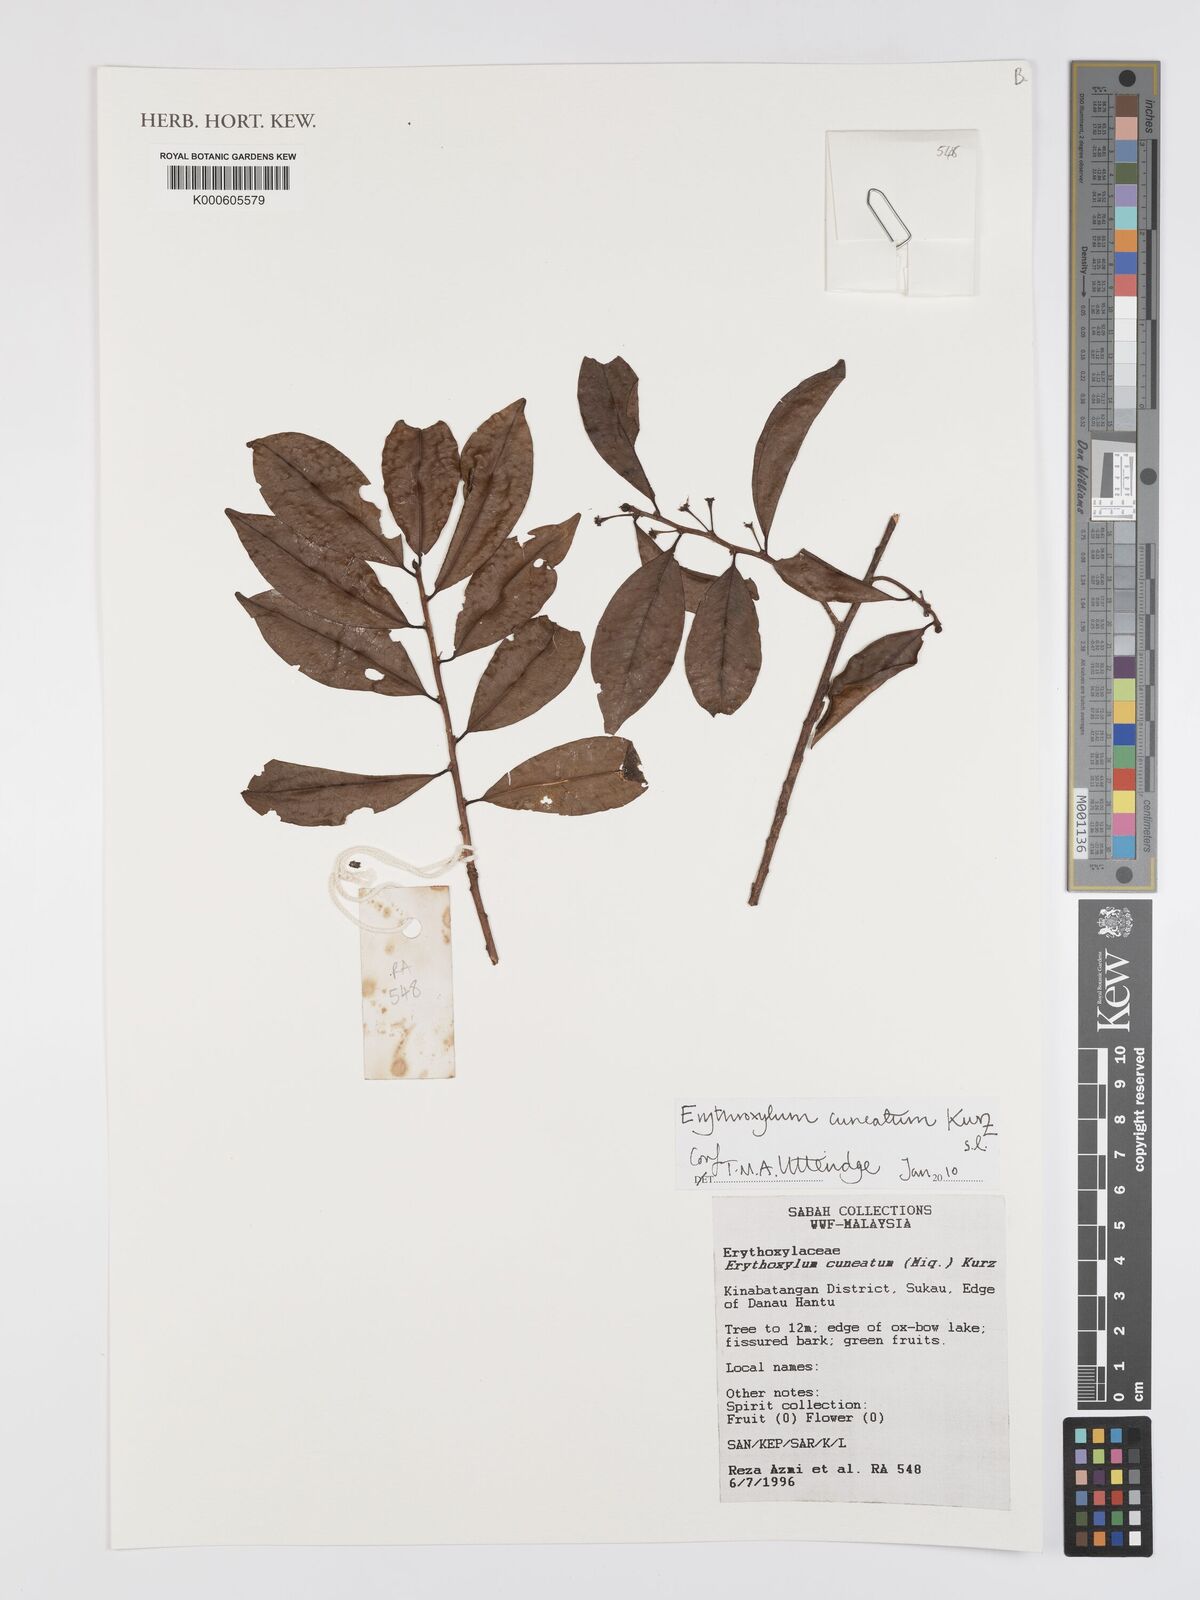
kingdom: Plantae
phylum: Tracheophyta
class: Magnoliopsida
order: Malpighiales
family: Erythroxylaceae
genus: Erythroxylum
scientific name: Erythroxylum cuneatum
